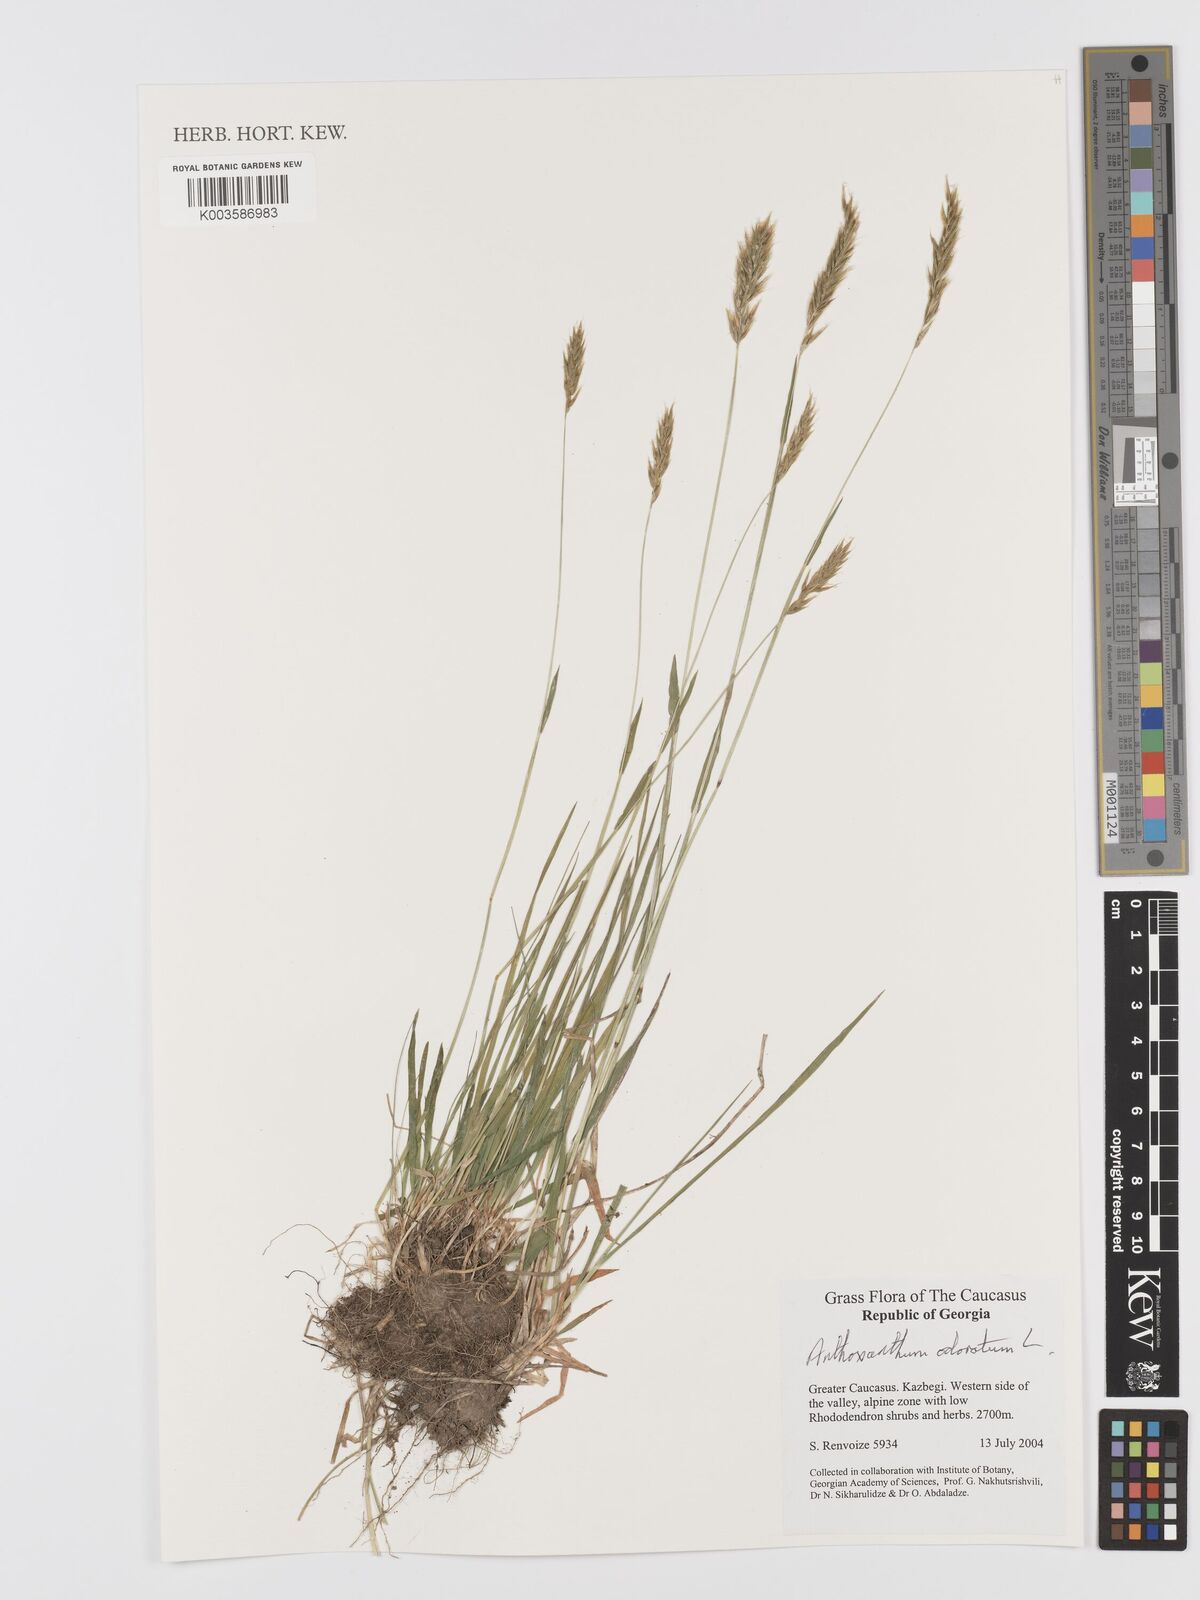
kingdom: Plantae
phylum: Tracheophyta
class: Liliopsida
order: Poales
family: Poaceae
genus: Anthoxanthum
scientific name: Anthoxanthum odoratum
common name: Sweet vernalgrass
